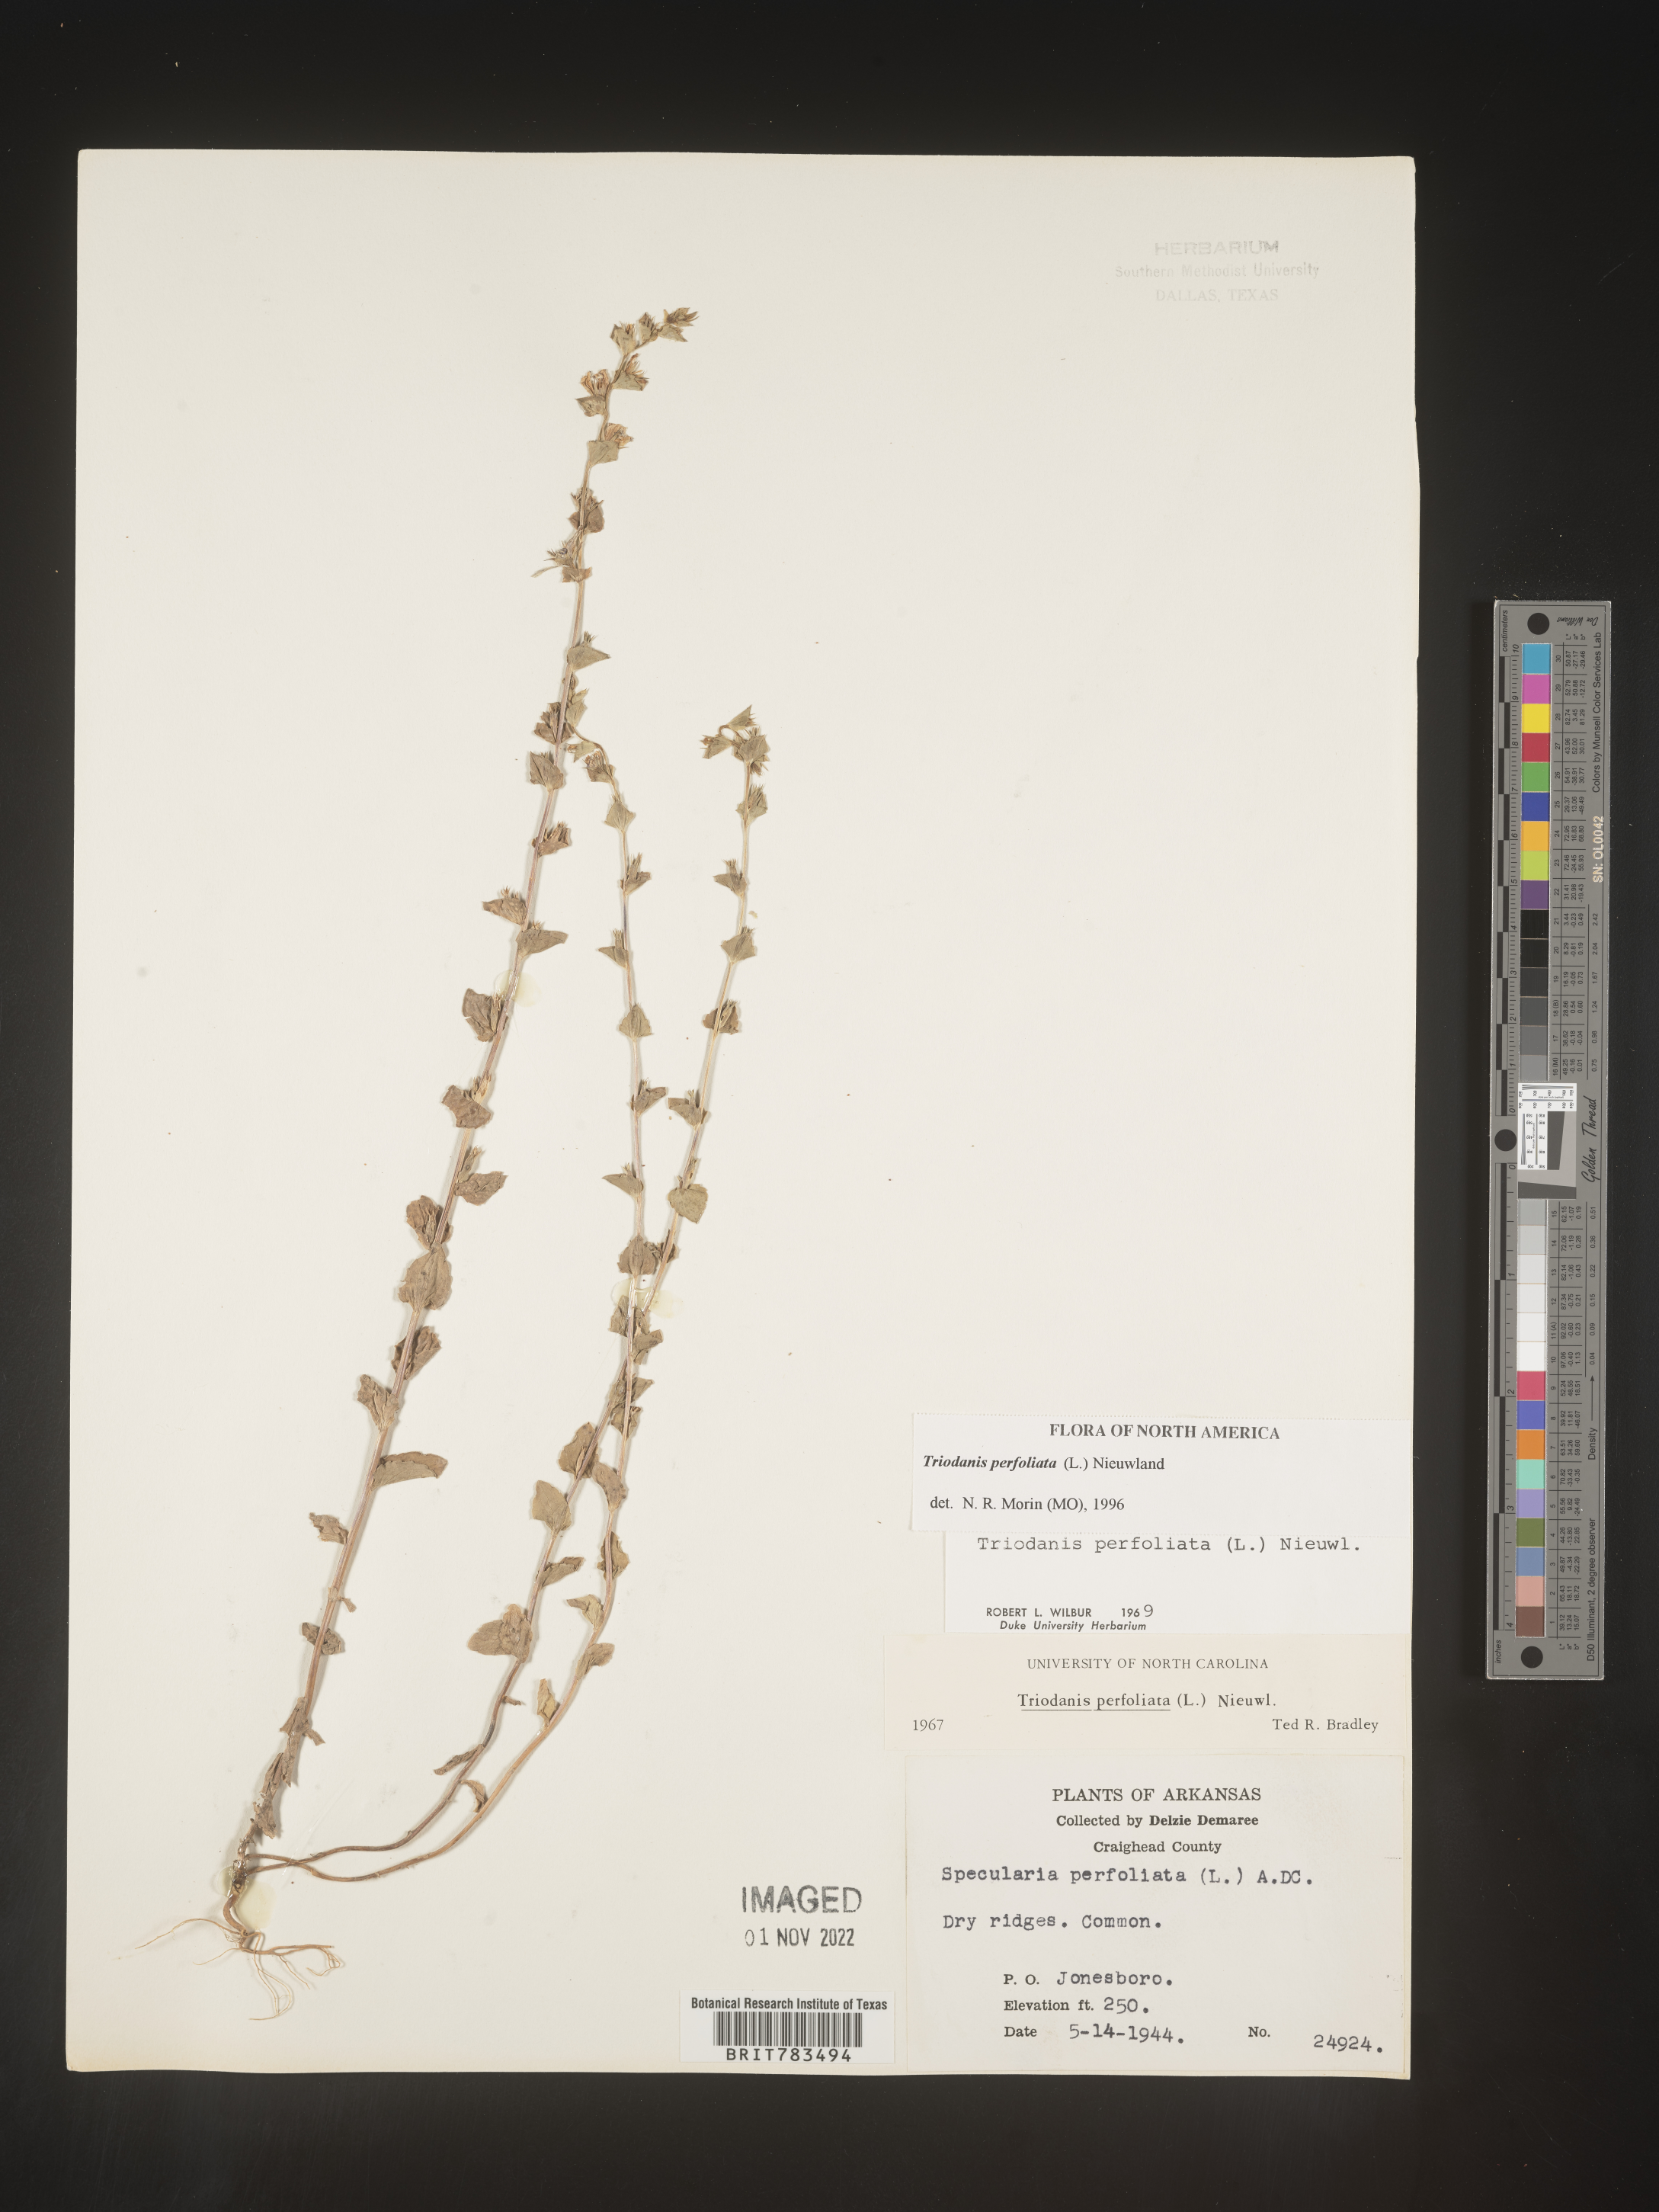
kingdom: Plantae
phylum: Tracheophyta
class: Magnoliopsida
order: Asterales
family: Campanulaceae
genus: Triodanis
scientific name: Triodanis perfoliata
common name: Clasping venus' looking-glass
